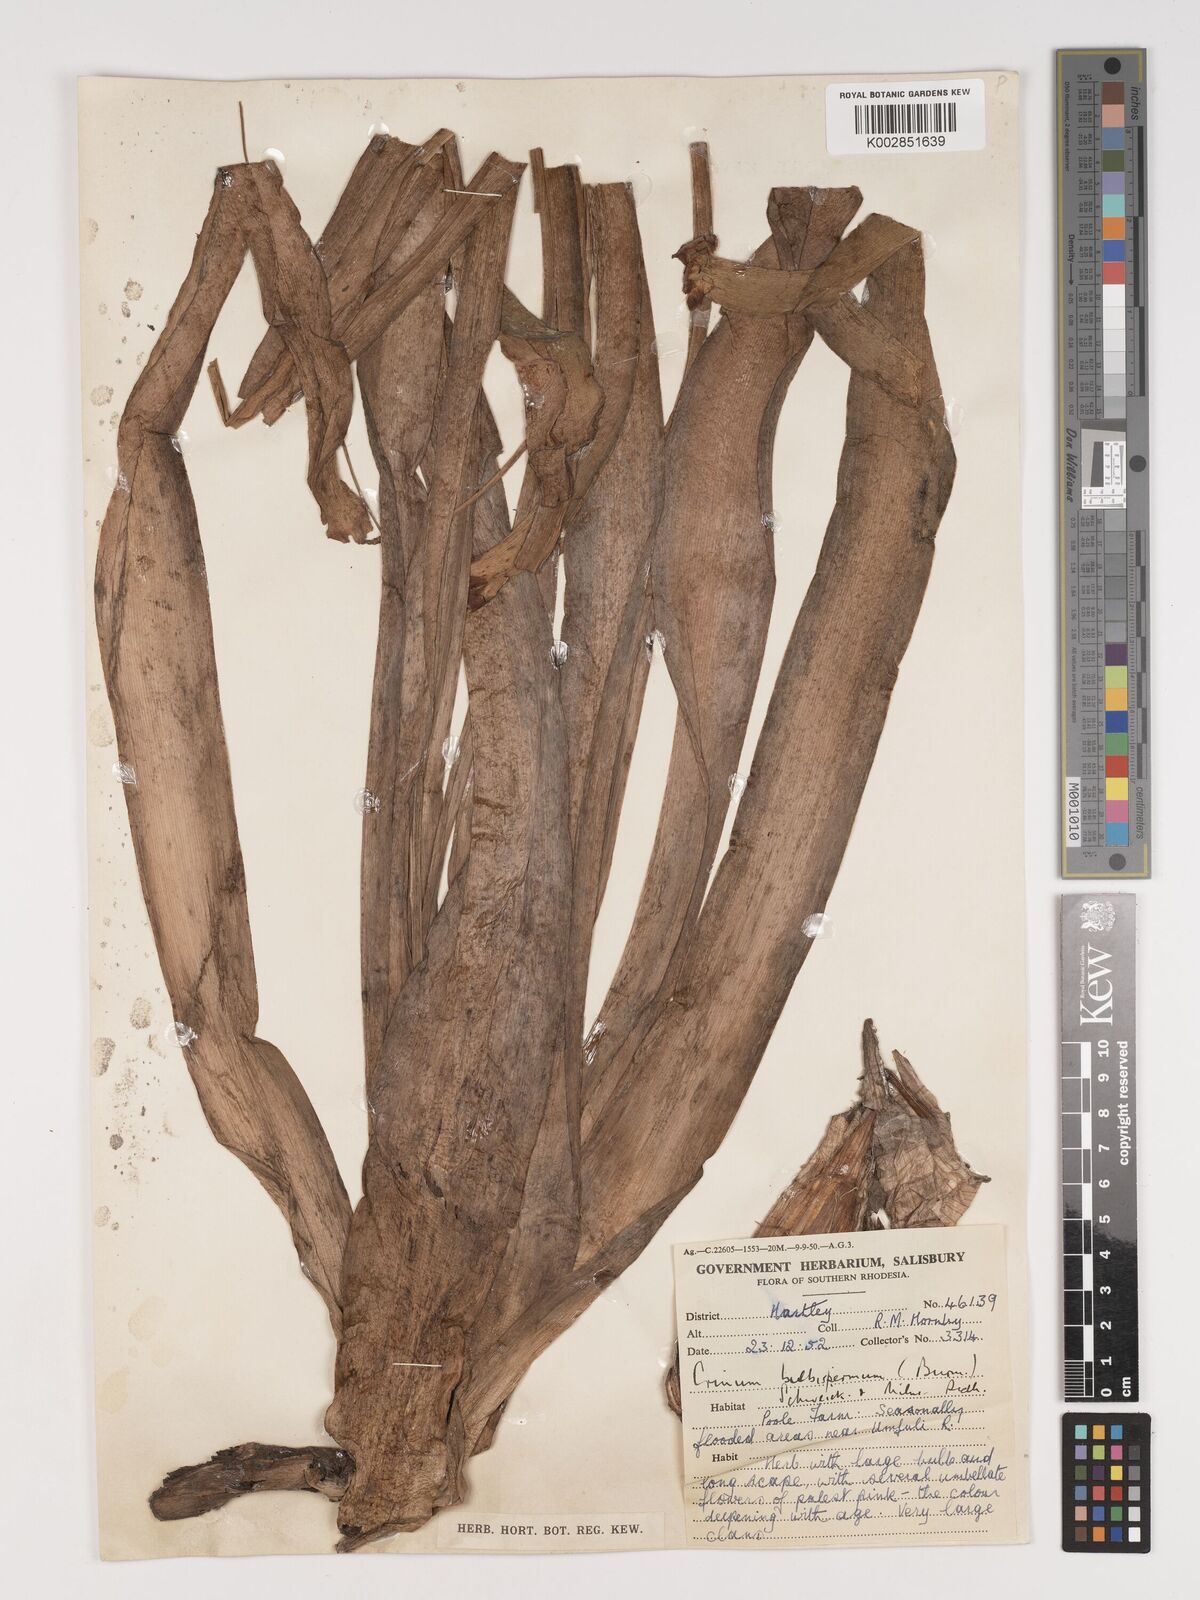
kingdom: Plantae
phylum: Tracheophyta
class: Liliopsida
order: Asparagales
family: Amaryllidaceae
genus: Crinum
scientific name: Crinum macowanii
